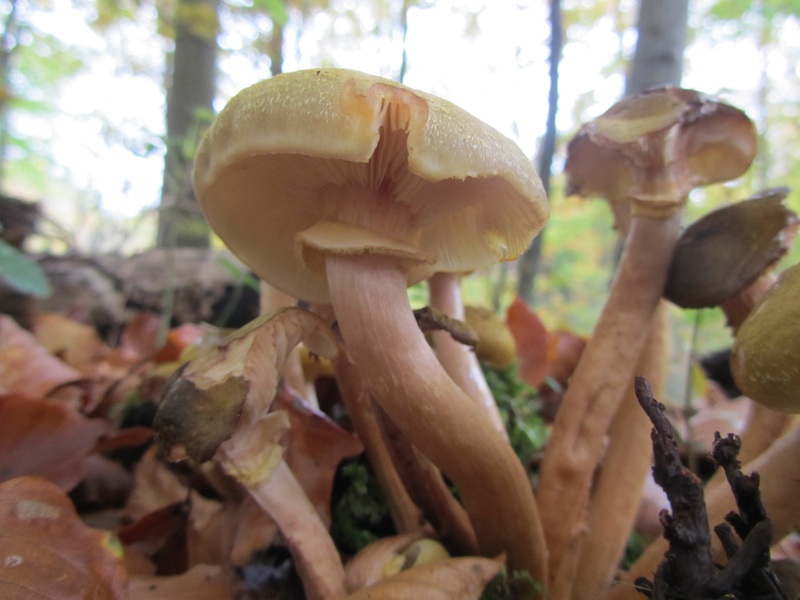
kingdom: Fungi
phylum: Basidiomycota
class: Agaricomycetes
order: Agaricales
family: Physalacriaceae
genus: Armillaria
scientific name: Armillaria mellea
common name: ægte honningsvamp
